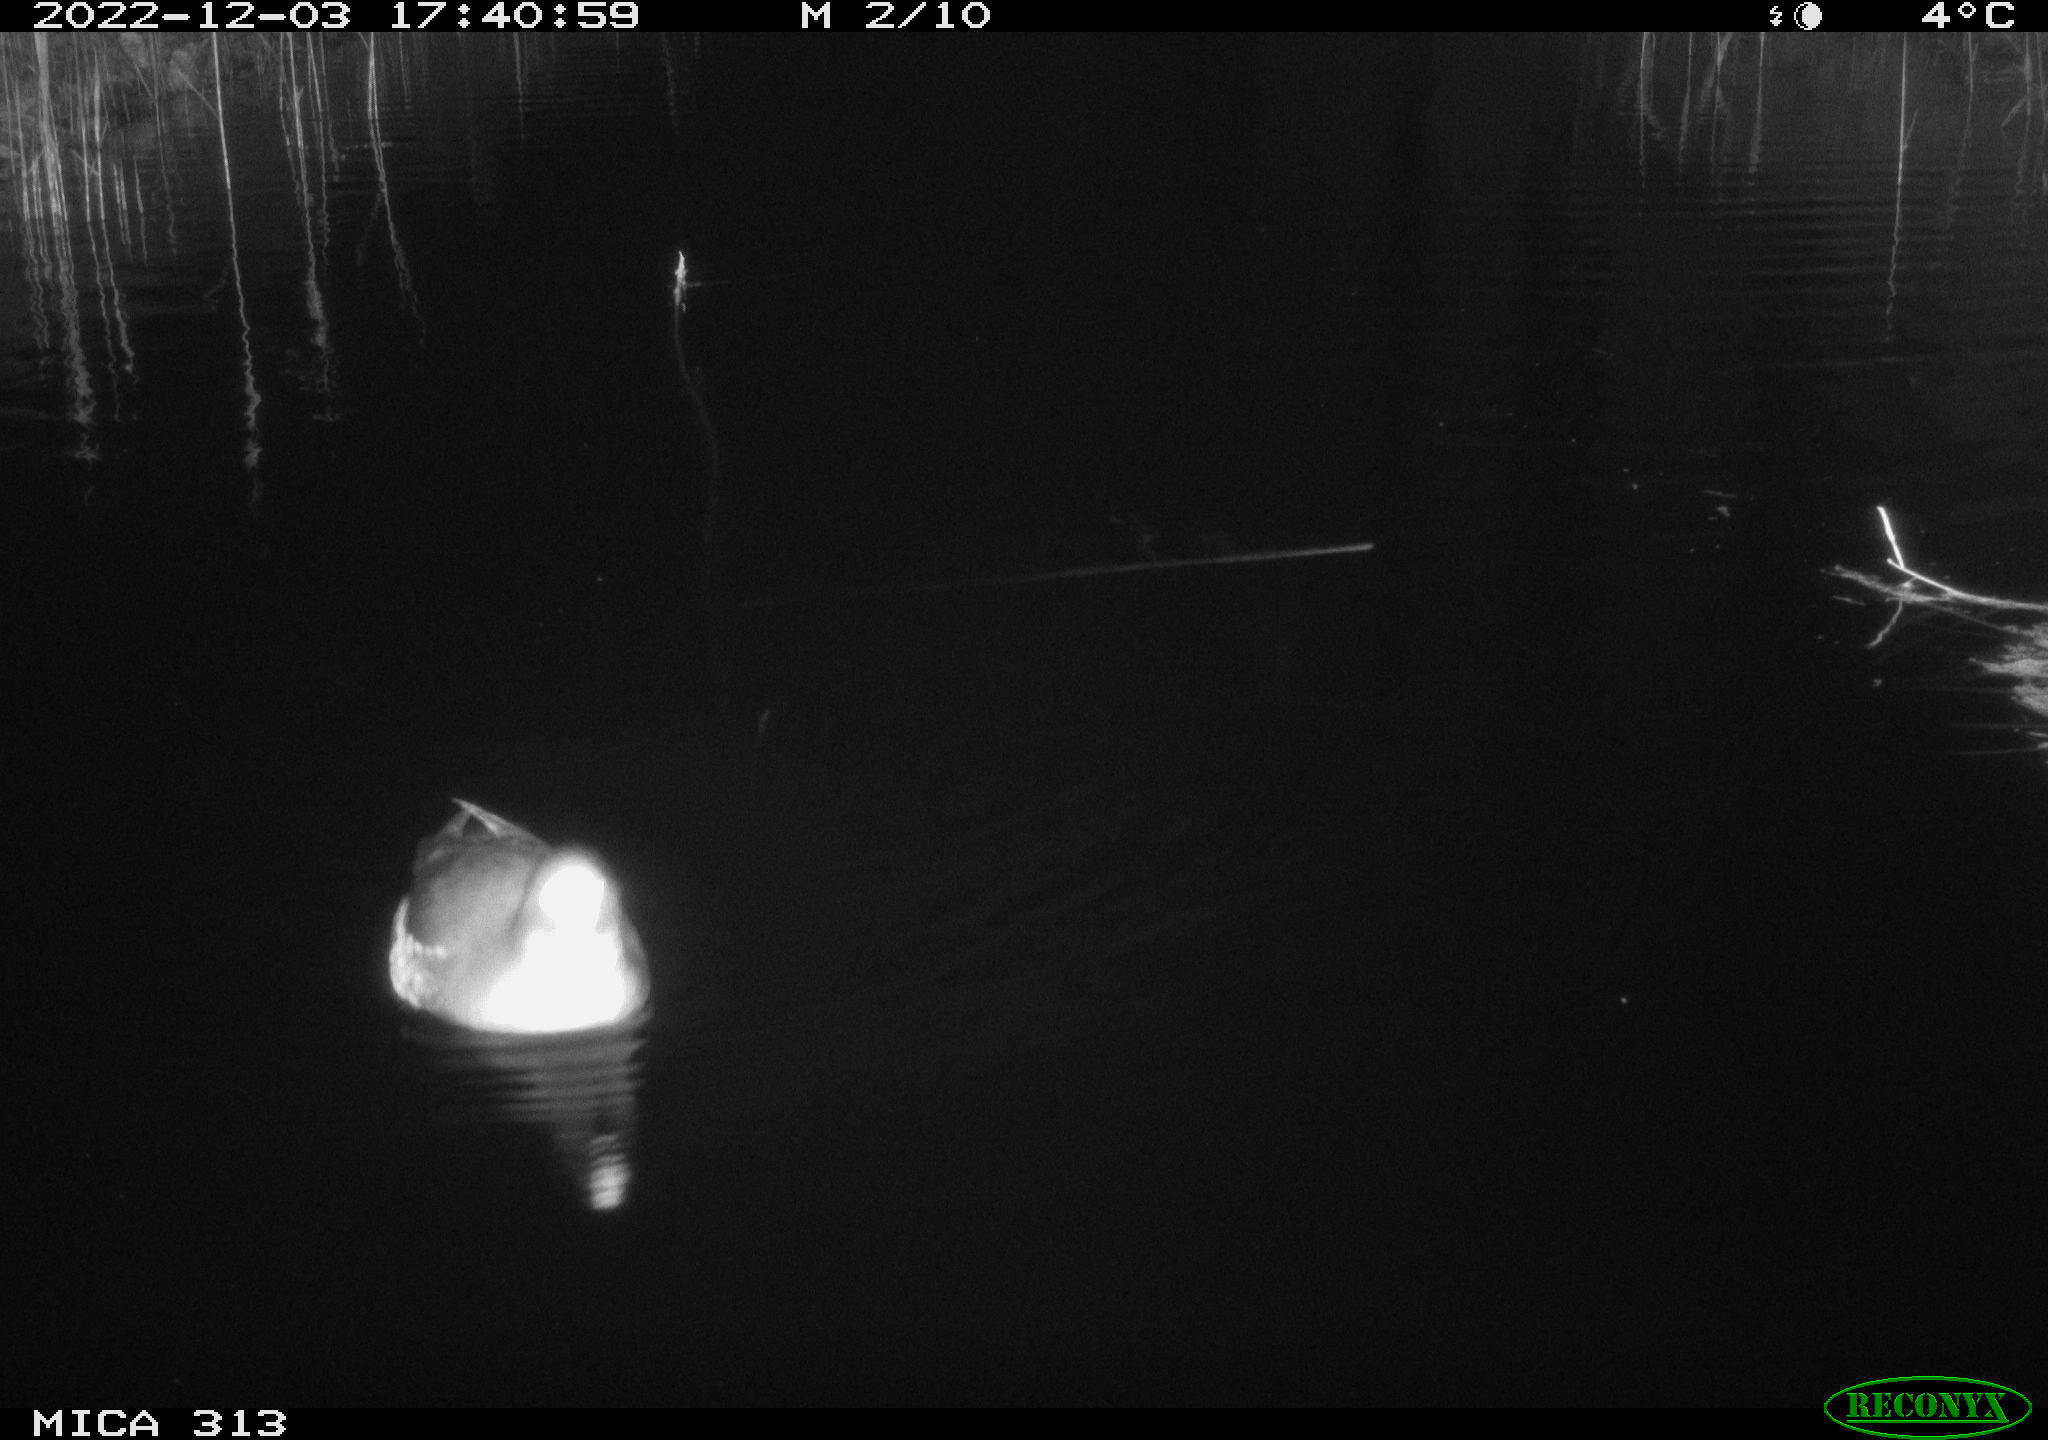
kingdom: Animalia
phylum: Chordata
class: Aves
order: Anseriformes
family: Anatidae
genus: Anas
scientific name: Anas
